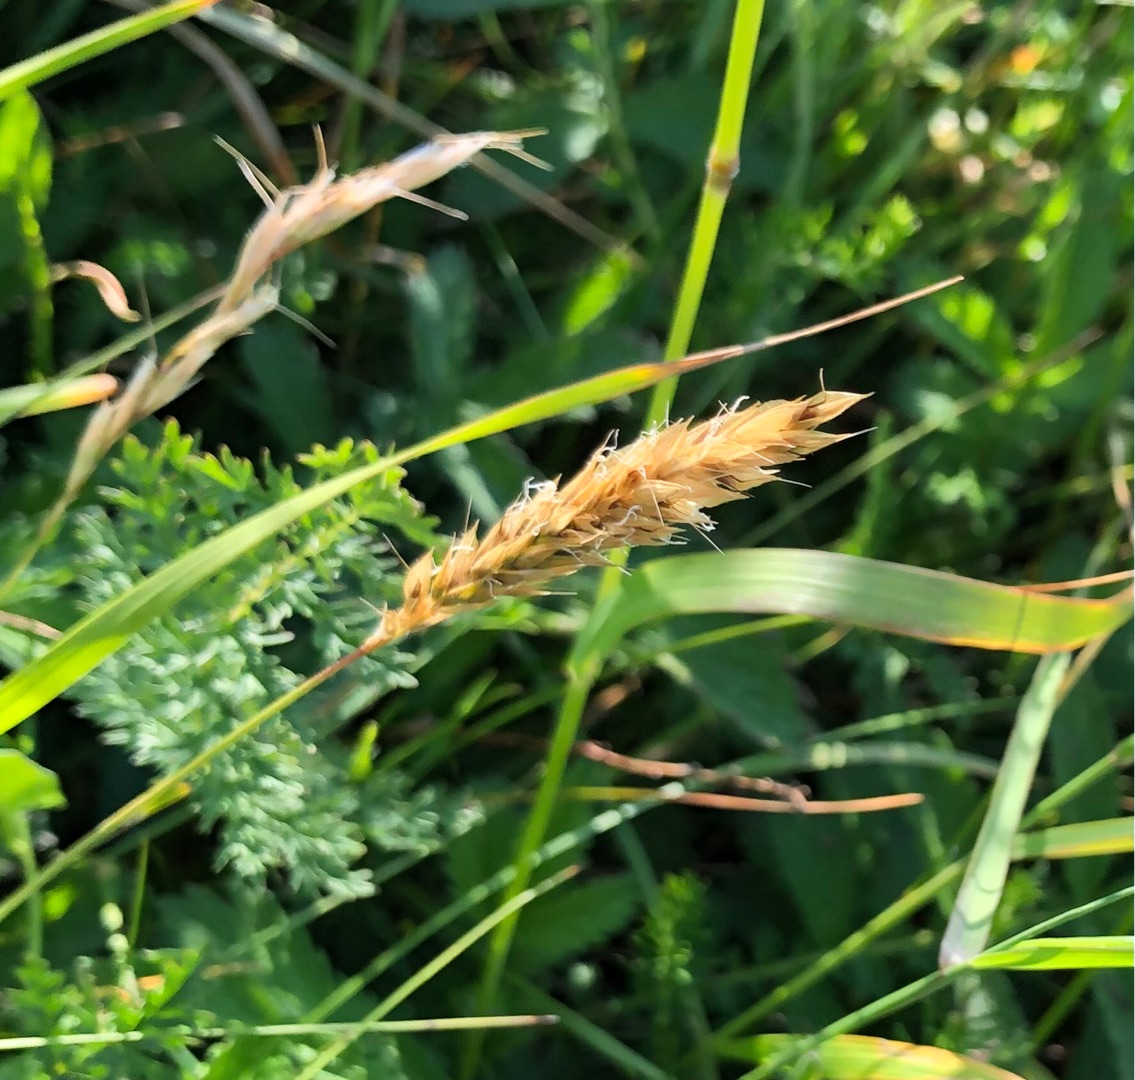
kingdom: Plantae
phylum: Tracheophyta
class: Liliopsida
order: Poales
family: Poaceae
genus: Anthoxanthum
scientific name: Anthoxanthum odoratum
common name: Vellugtende gulaks
